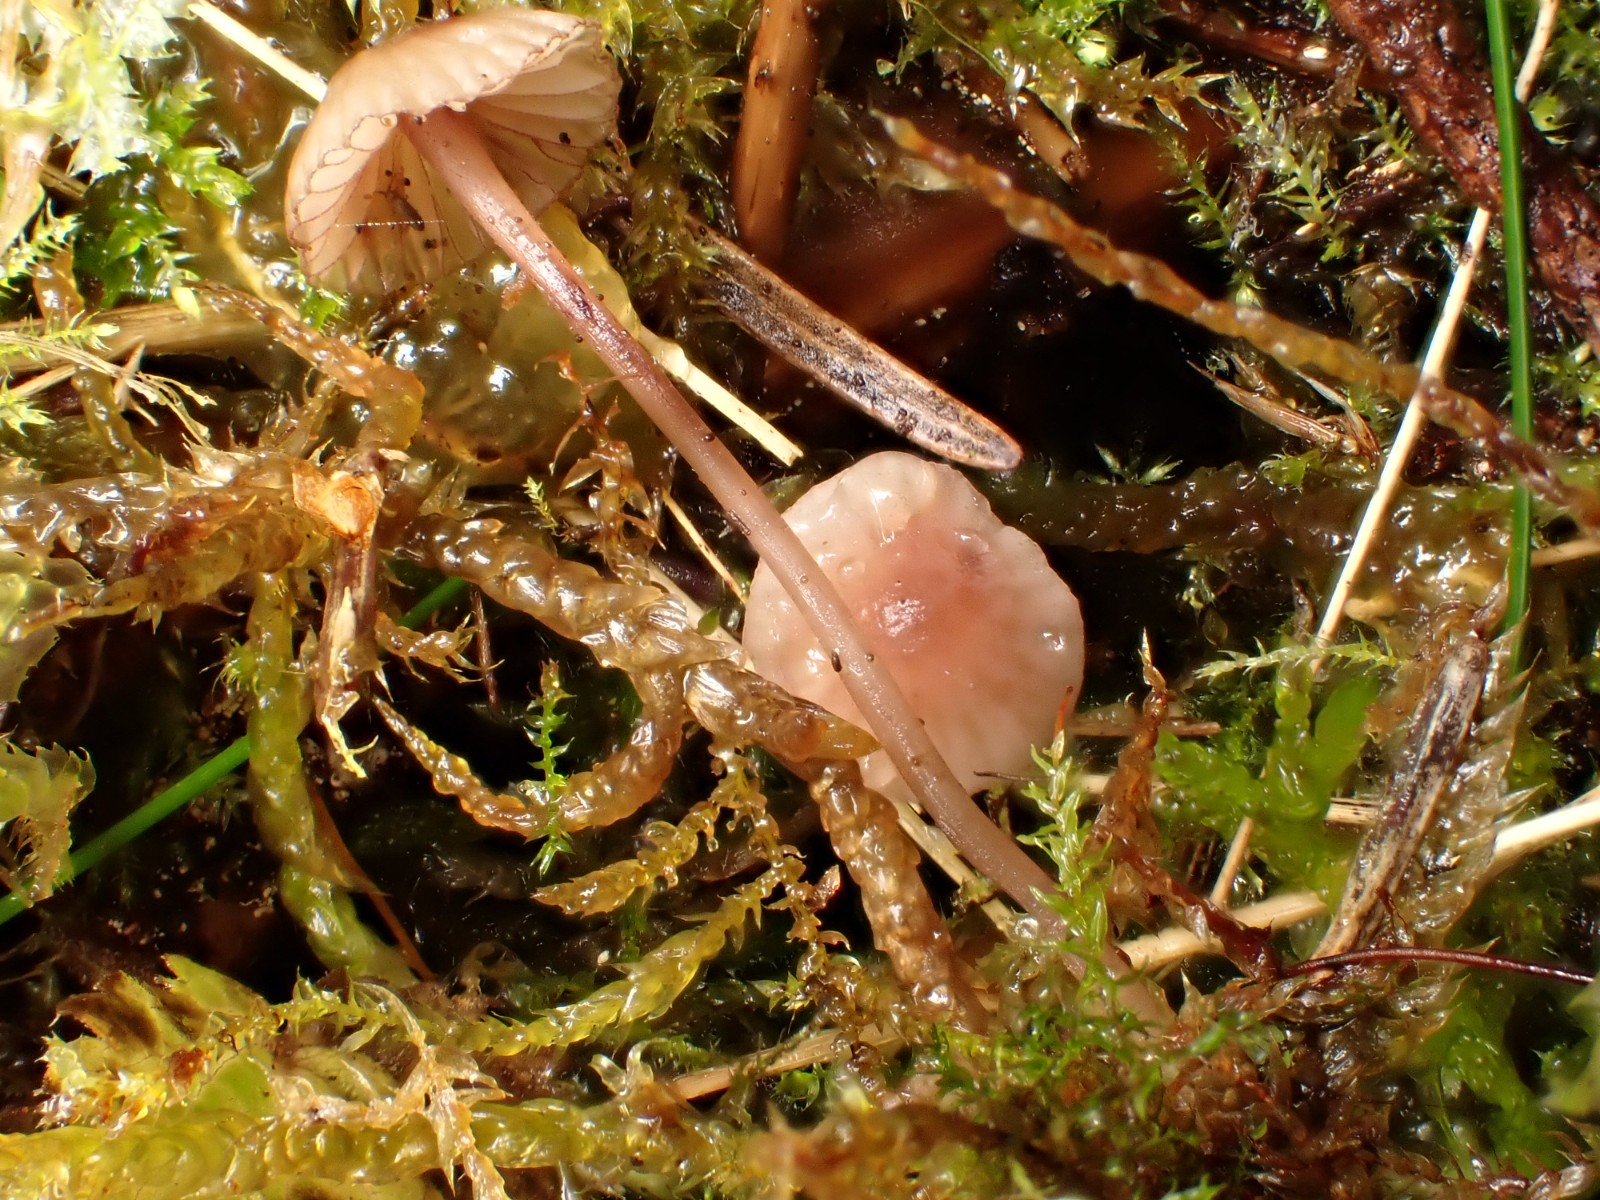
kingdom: Fungi
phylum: Basidiomycota
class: Agaricomycetes
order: Agaricales
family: Mycenaceae
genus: Mycena
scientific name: Mycena sanguinolenta
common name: rødmælket huesvamp
